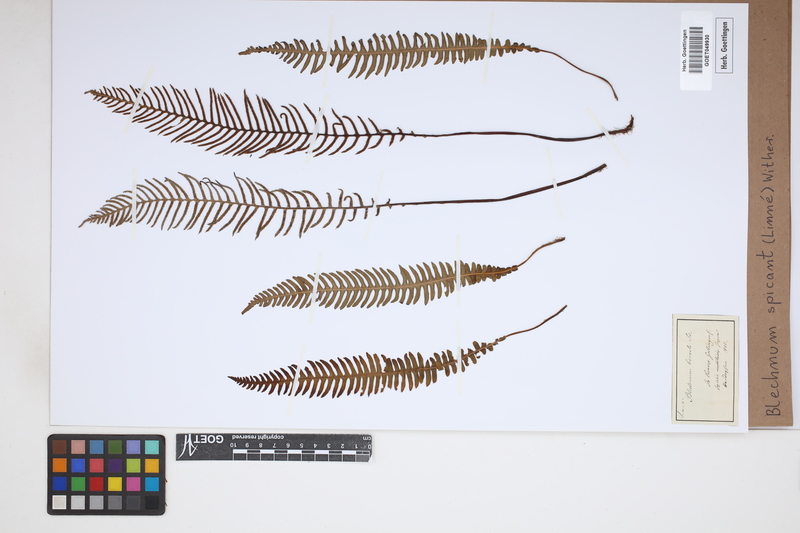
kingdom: Plantae
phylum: Tracheophyta
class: Polypodiopsida
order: Polypodiales
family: Blechnaceae
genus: Struthiopteris
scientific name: Struthiopteris spicant
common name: Deer fern
